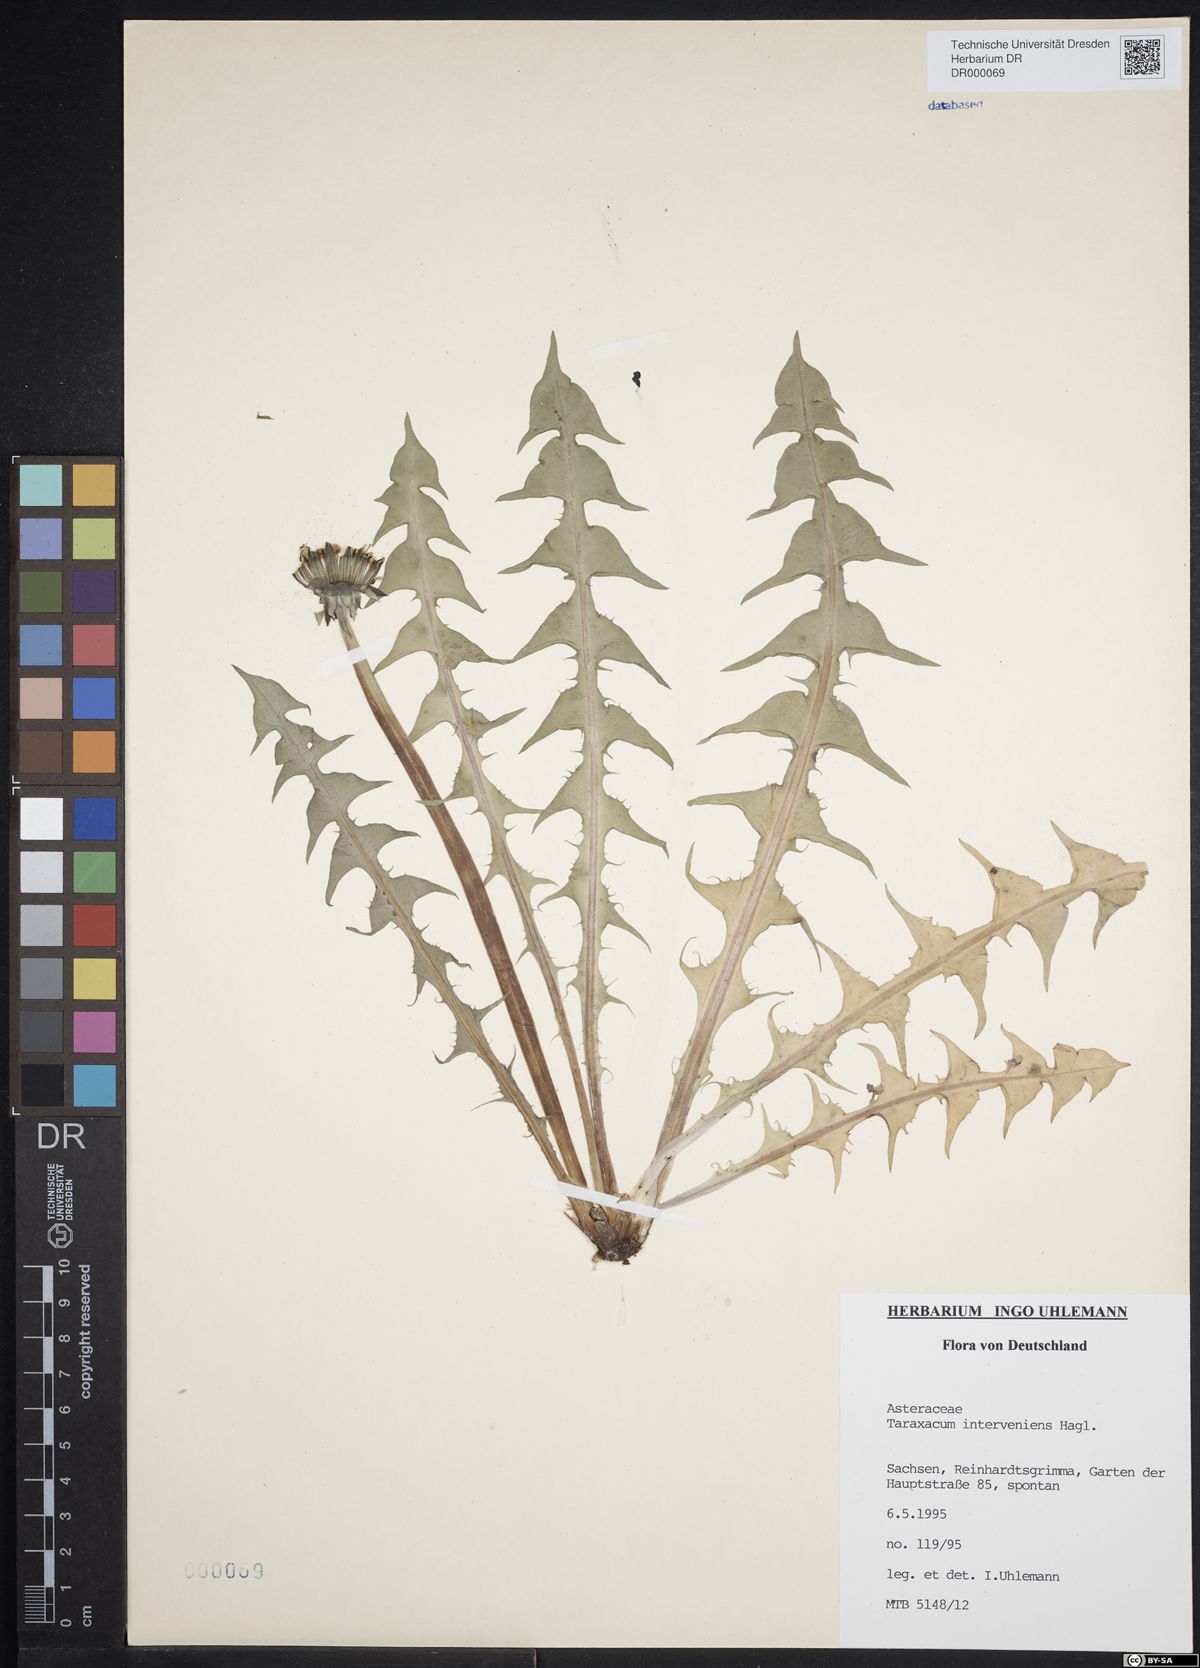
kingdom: Plantae
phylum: Tracheophyta
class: Magnoliopsida
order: Asterales
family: Asteraceae
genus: Taraxacum
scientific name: Taraxacum interveniens
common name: City dandelion
